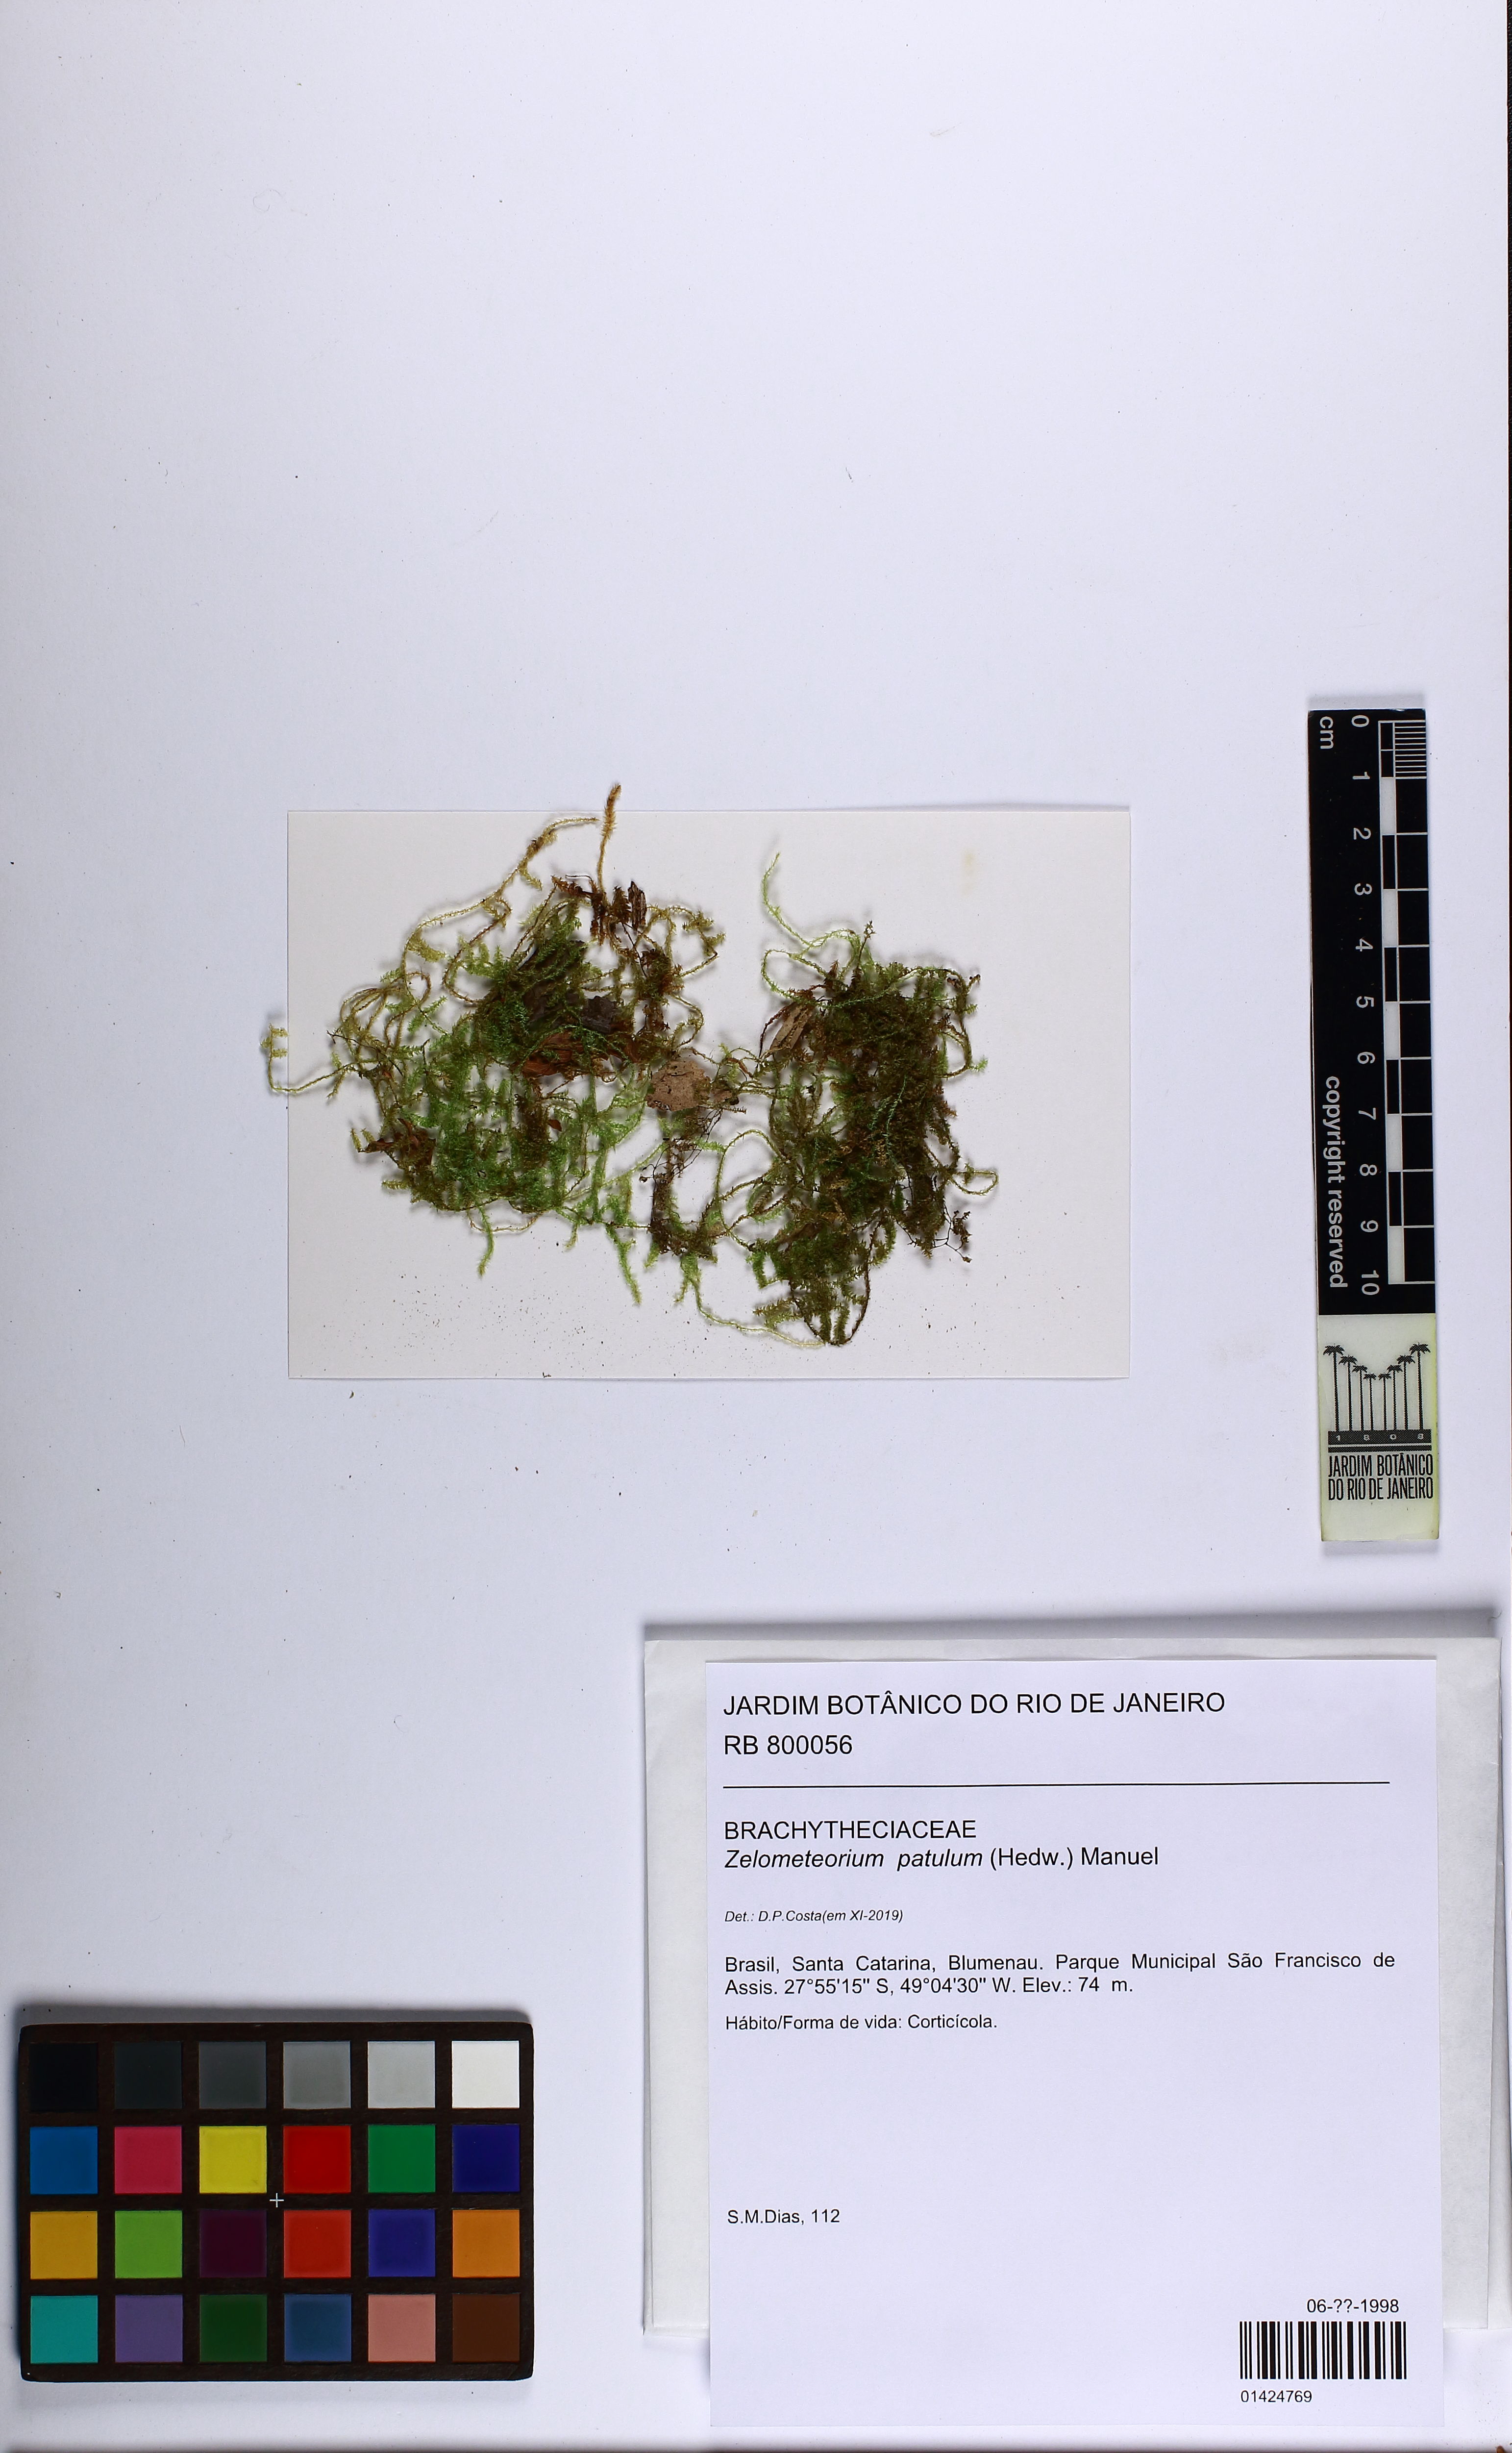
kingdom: Plantae
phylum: Bryophyta
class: Bryopsida
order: Hypnales
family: Brachytheciaceae
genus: Zelometeorium
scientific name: Zelometeorium patulum
